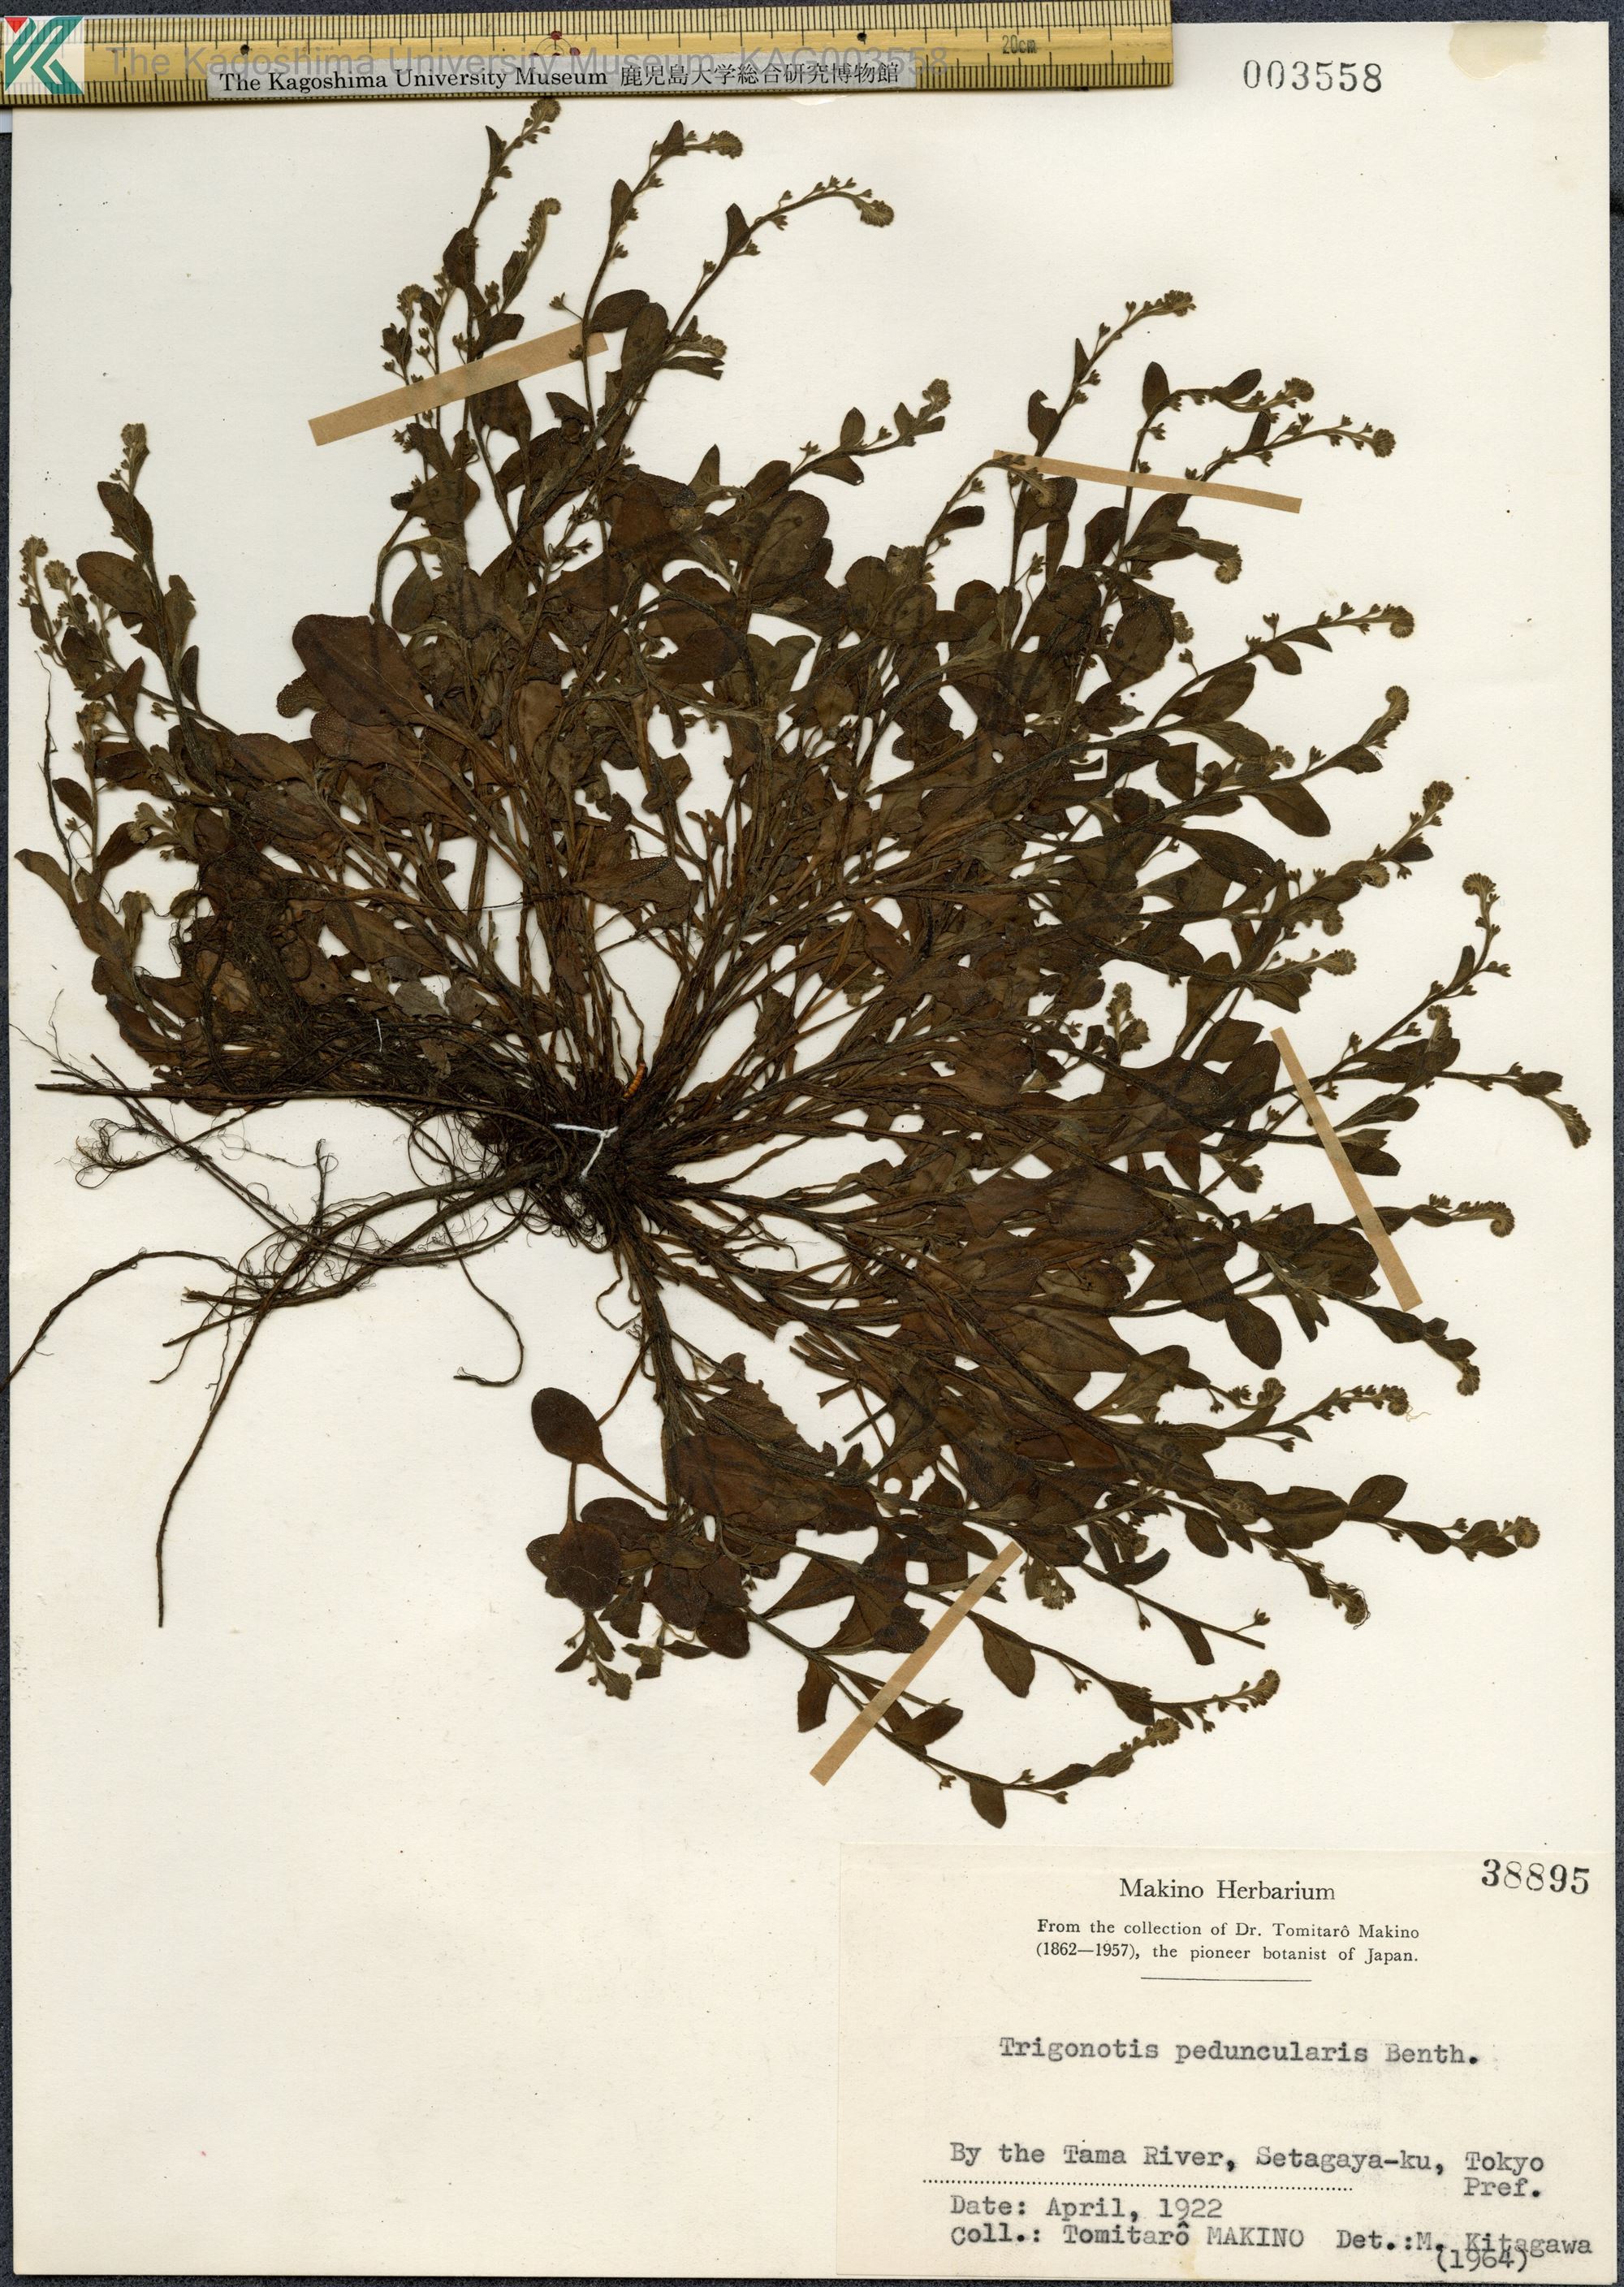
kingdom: Plantae
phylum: Tracheophyta
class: Magnoliopsida
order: Boraginales
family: Boraginaceae
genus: Trigonotis
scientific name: Trigonotis peduncularis
